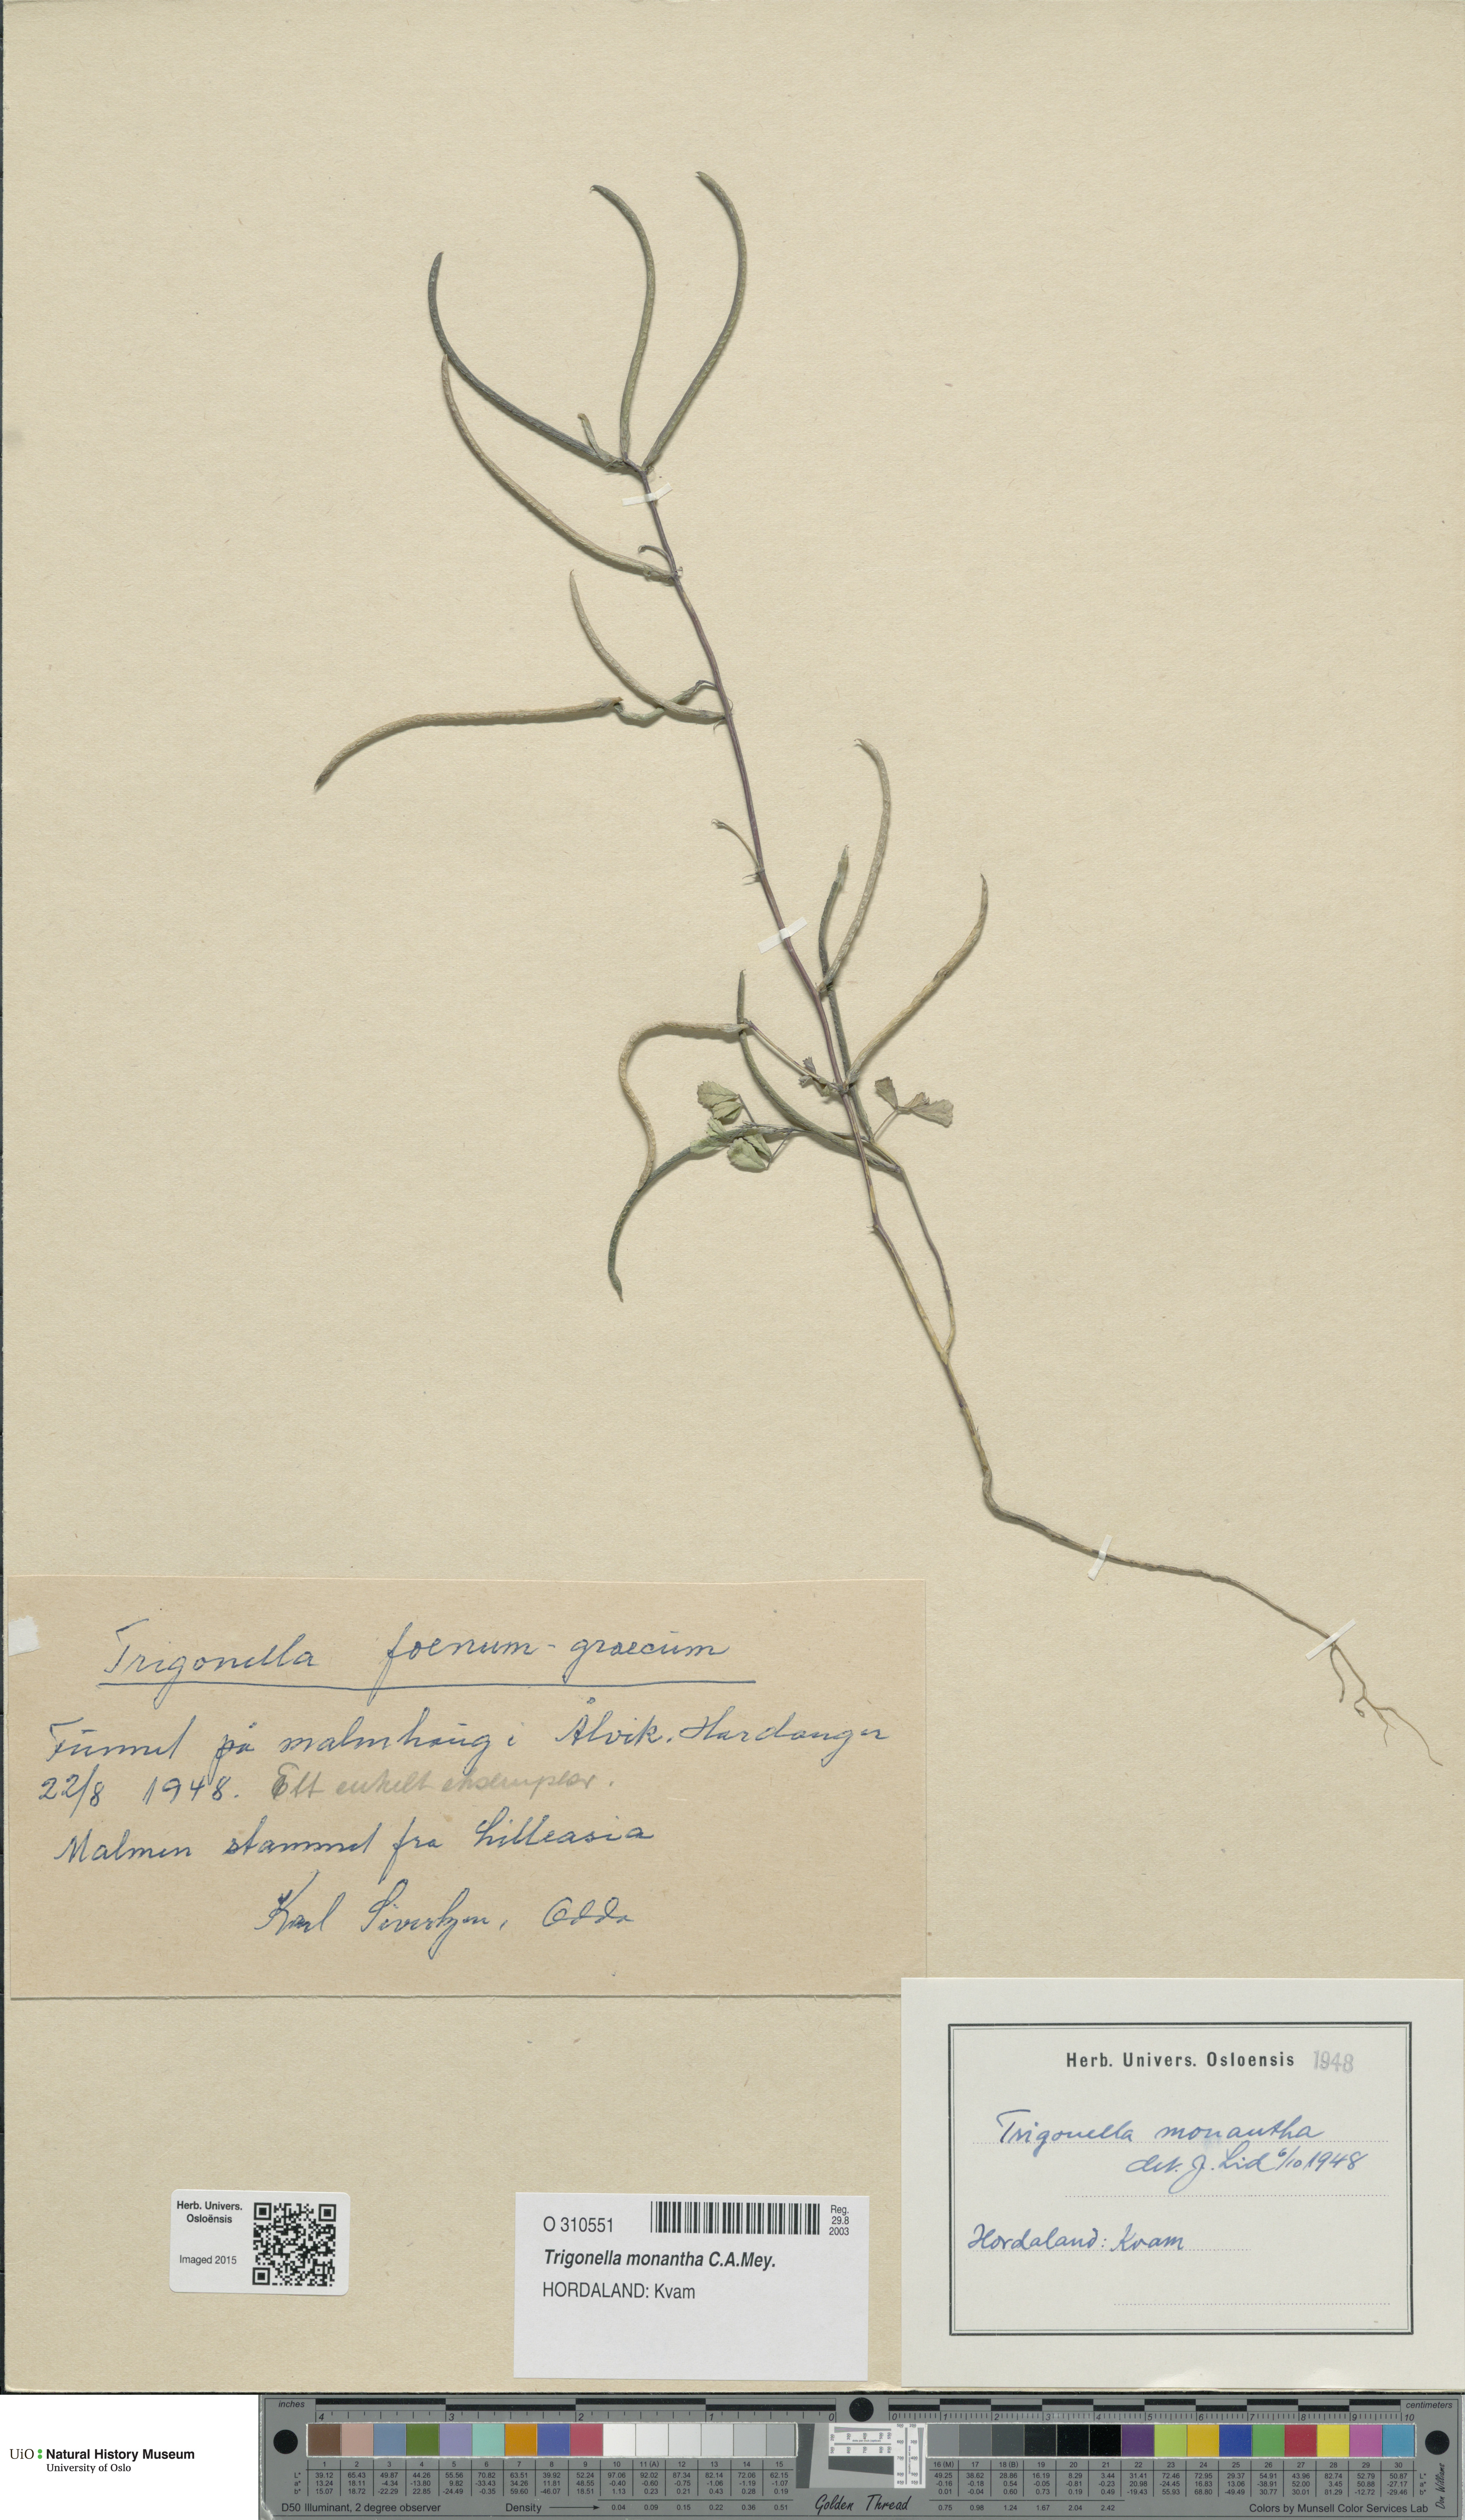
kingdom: Plantae
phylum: Tracheophyta
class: Magnoliopsida
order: Fabales
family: Fabaceae
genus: Medicago
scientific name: Medicago monantha
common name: Medick
